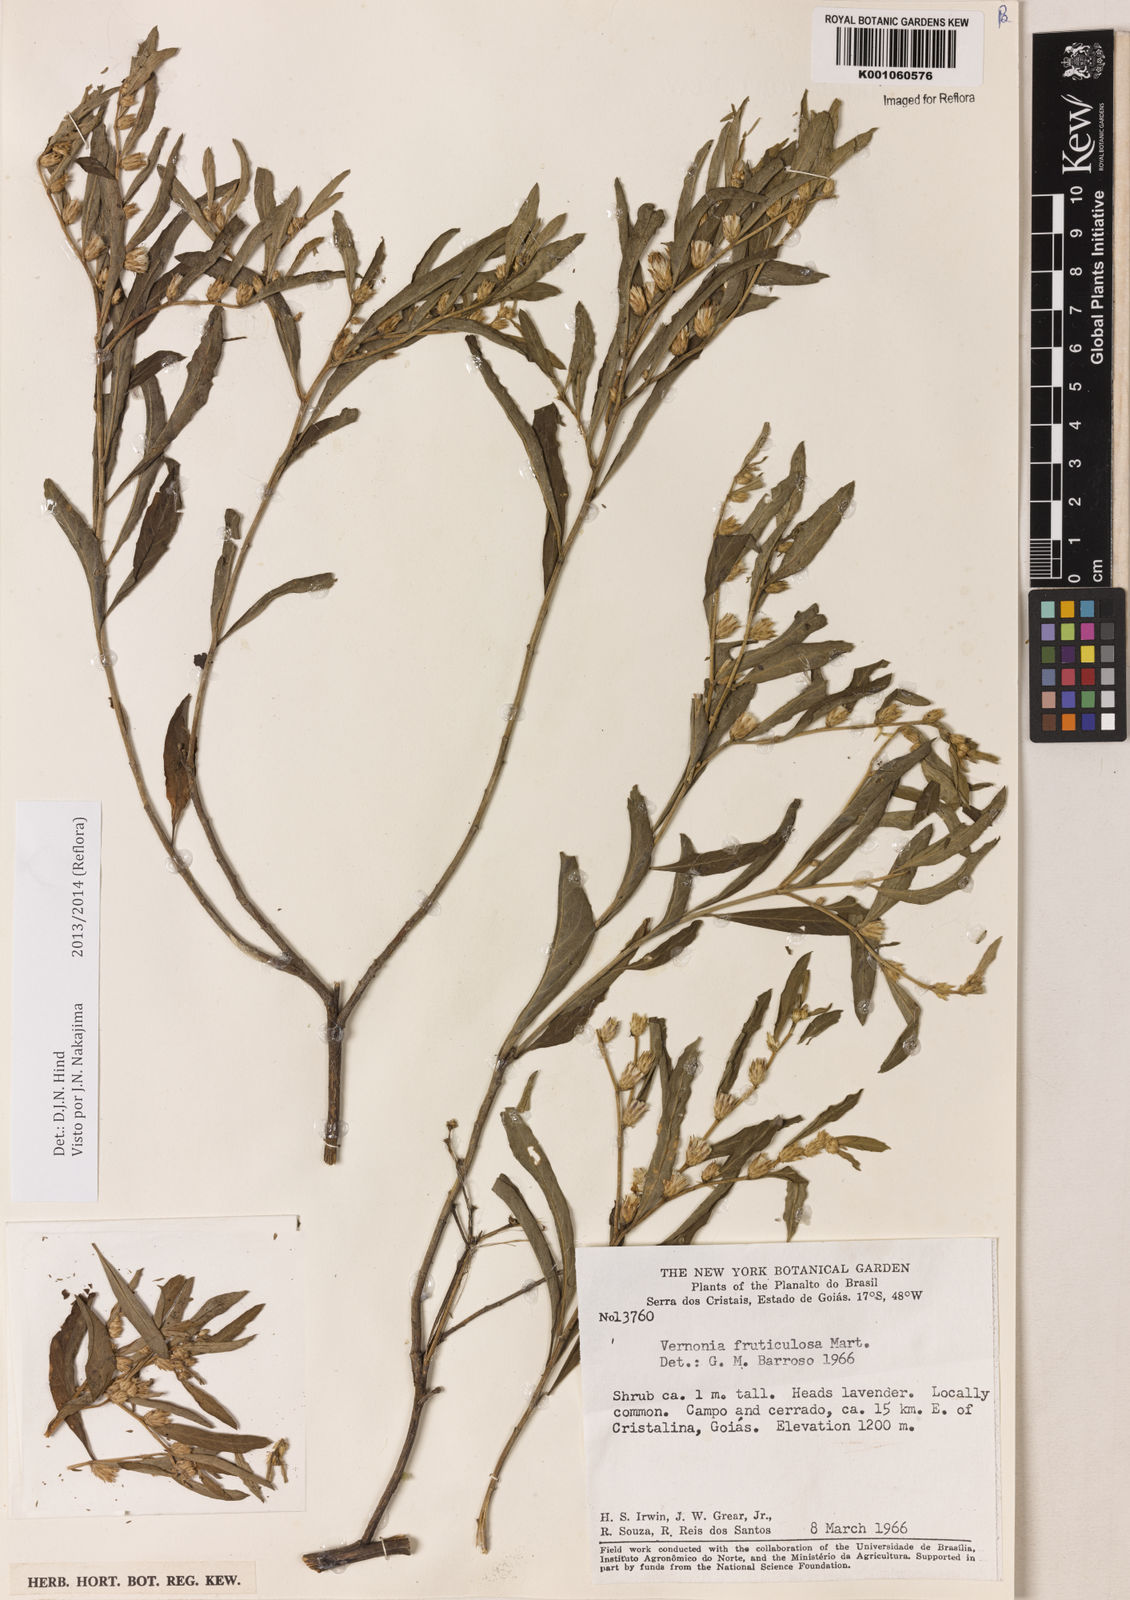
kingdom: Plantae
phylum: Tracheophyta
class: Magnoliopsida
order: Asterales
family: Asteraceae
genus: Lepidaploa
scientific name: Lepidaploa rufogrisea
